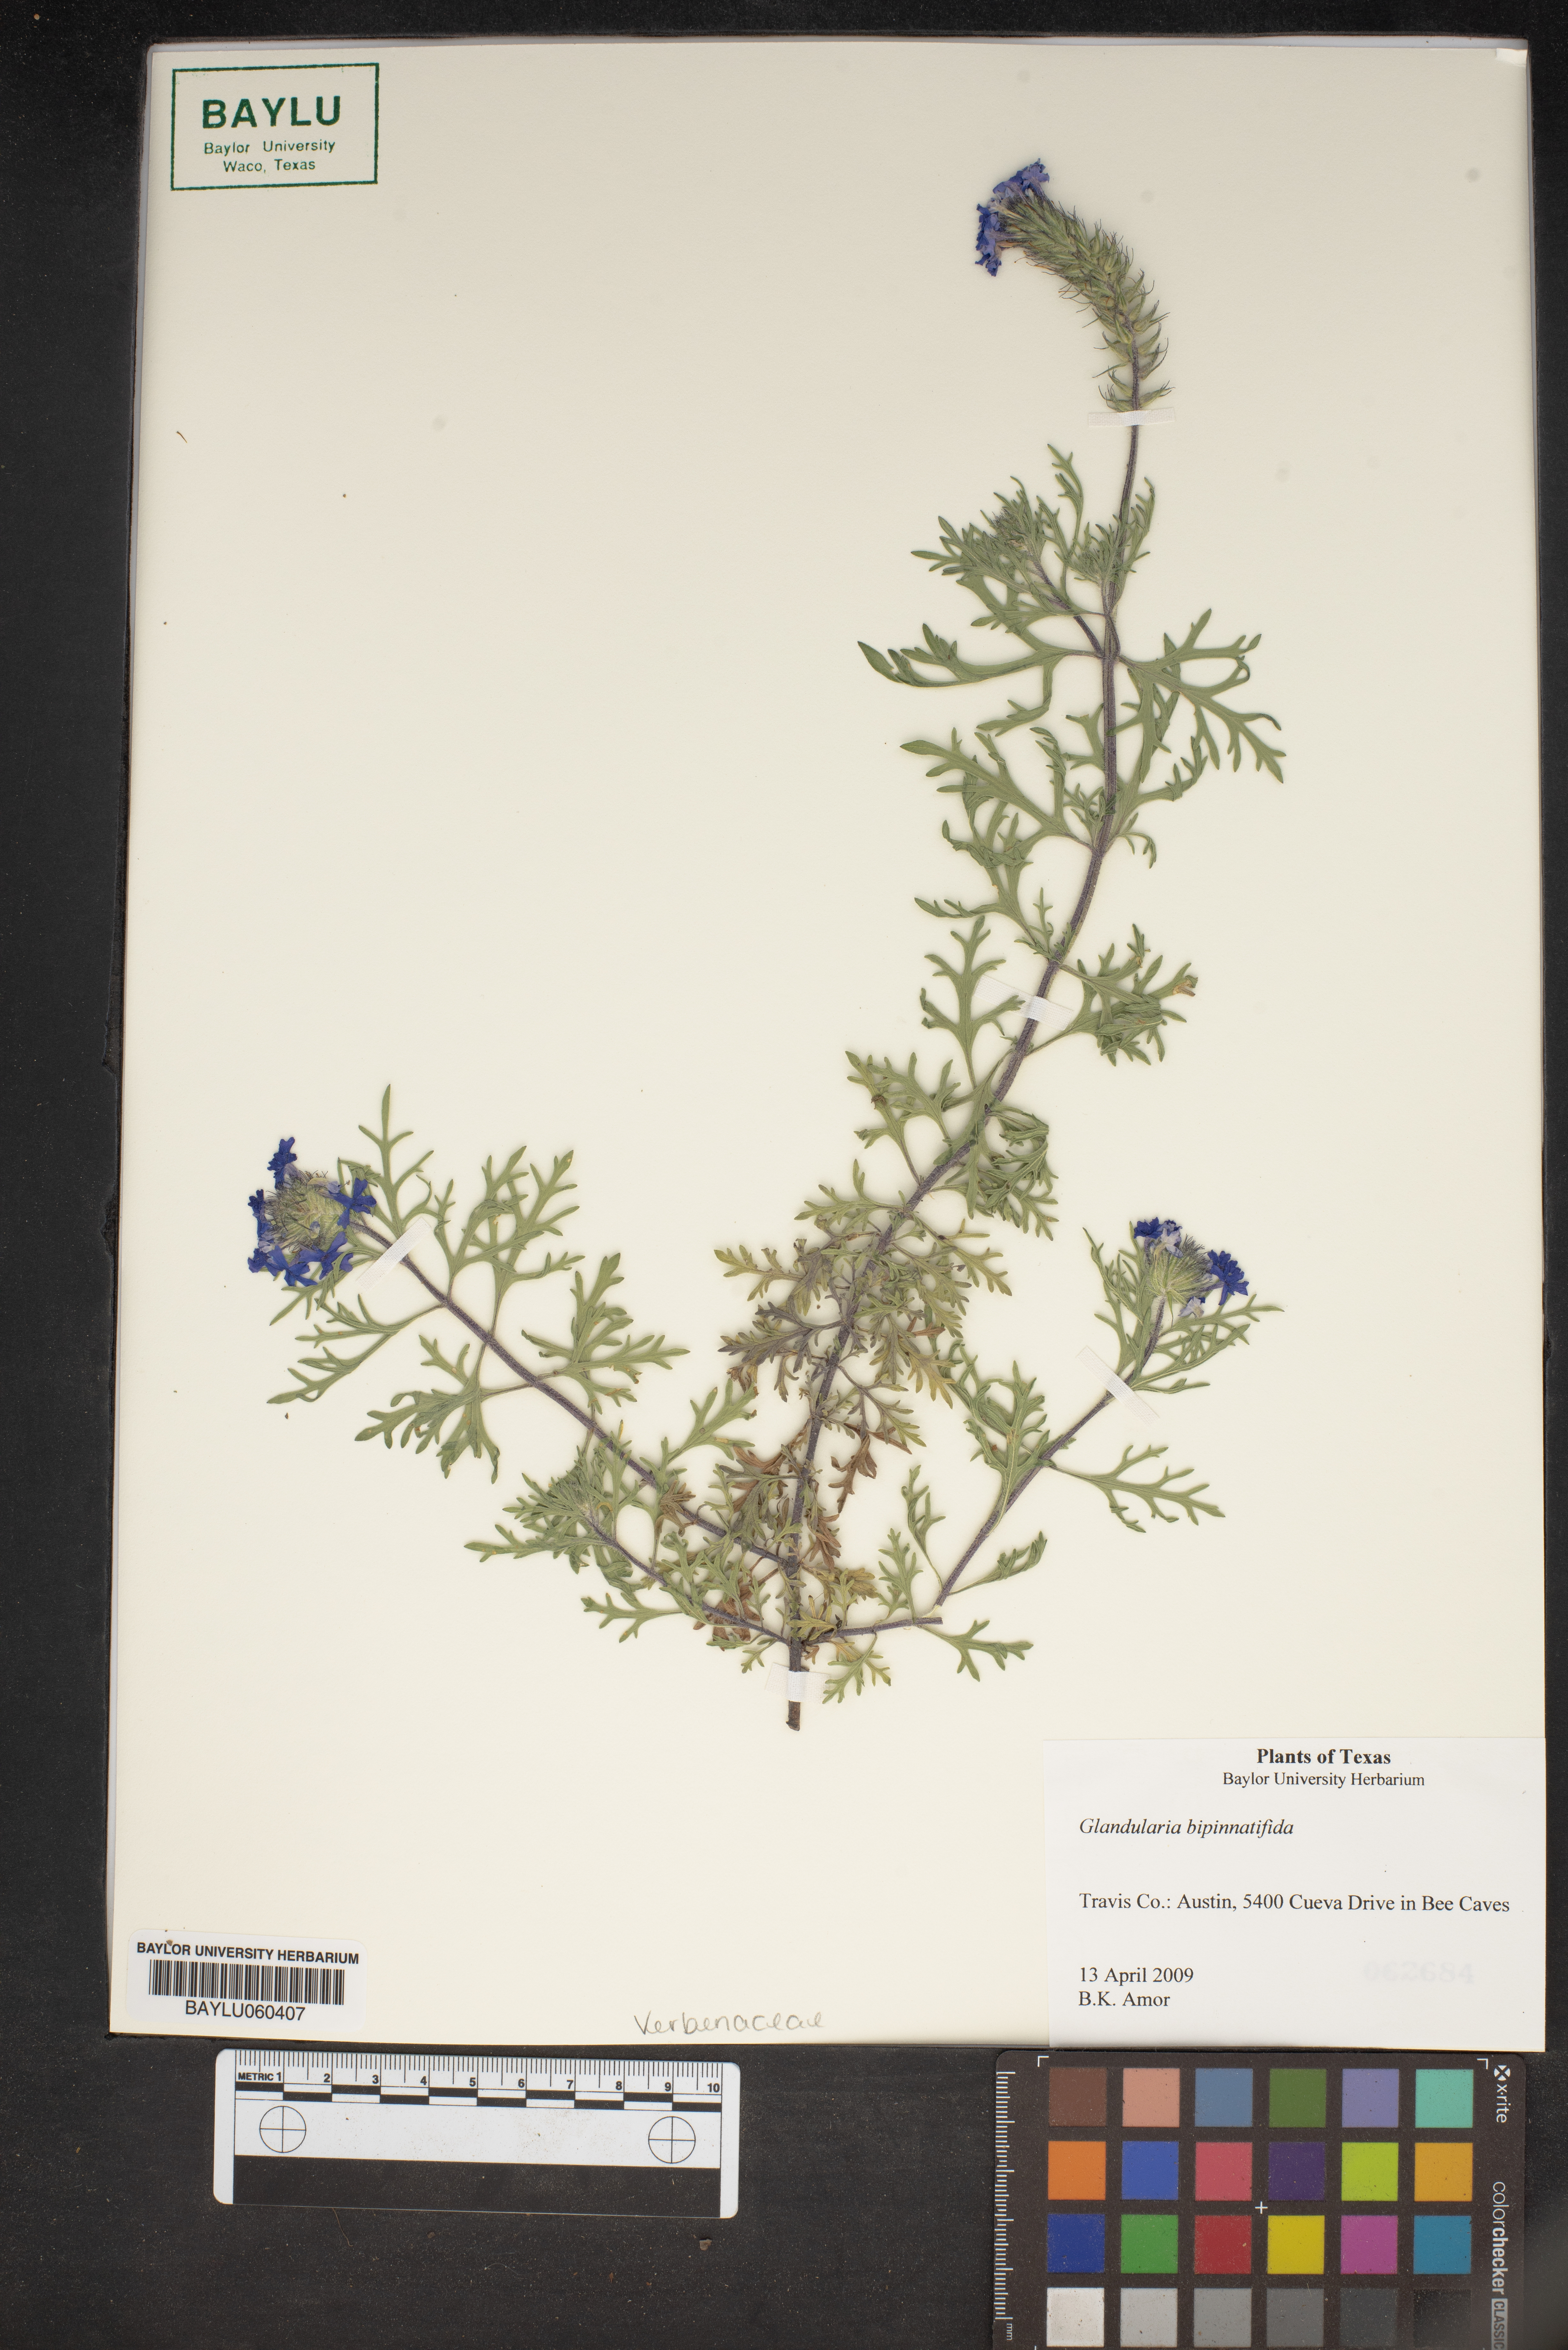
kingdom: Plantae
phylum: Tracheophyta
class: Magnoliopsida
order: Lamiales
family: Verbenaceae
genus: Verbena
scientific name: Verbena bipinnatifida
